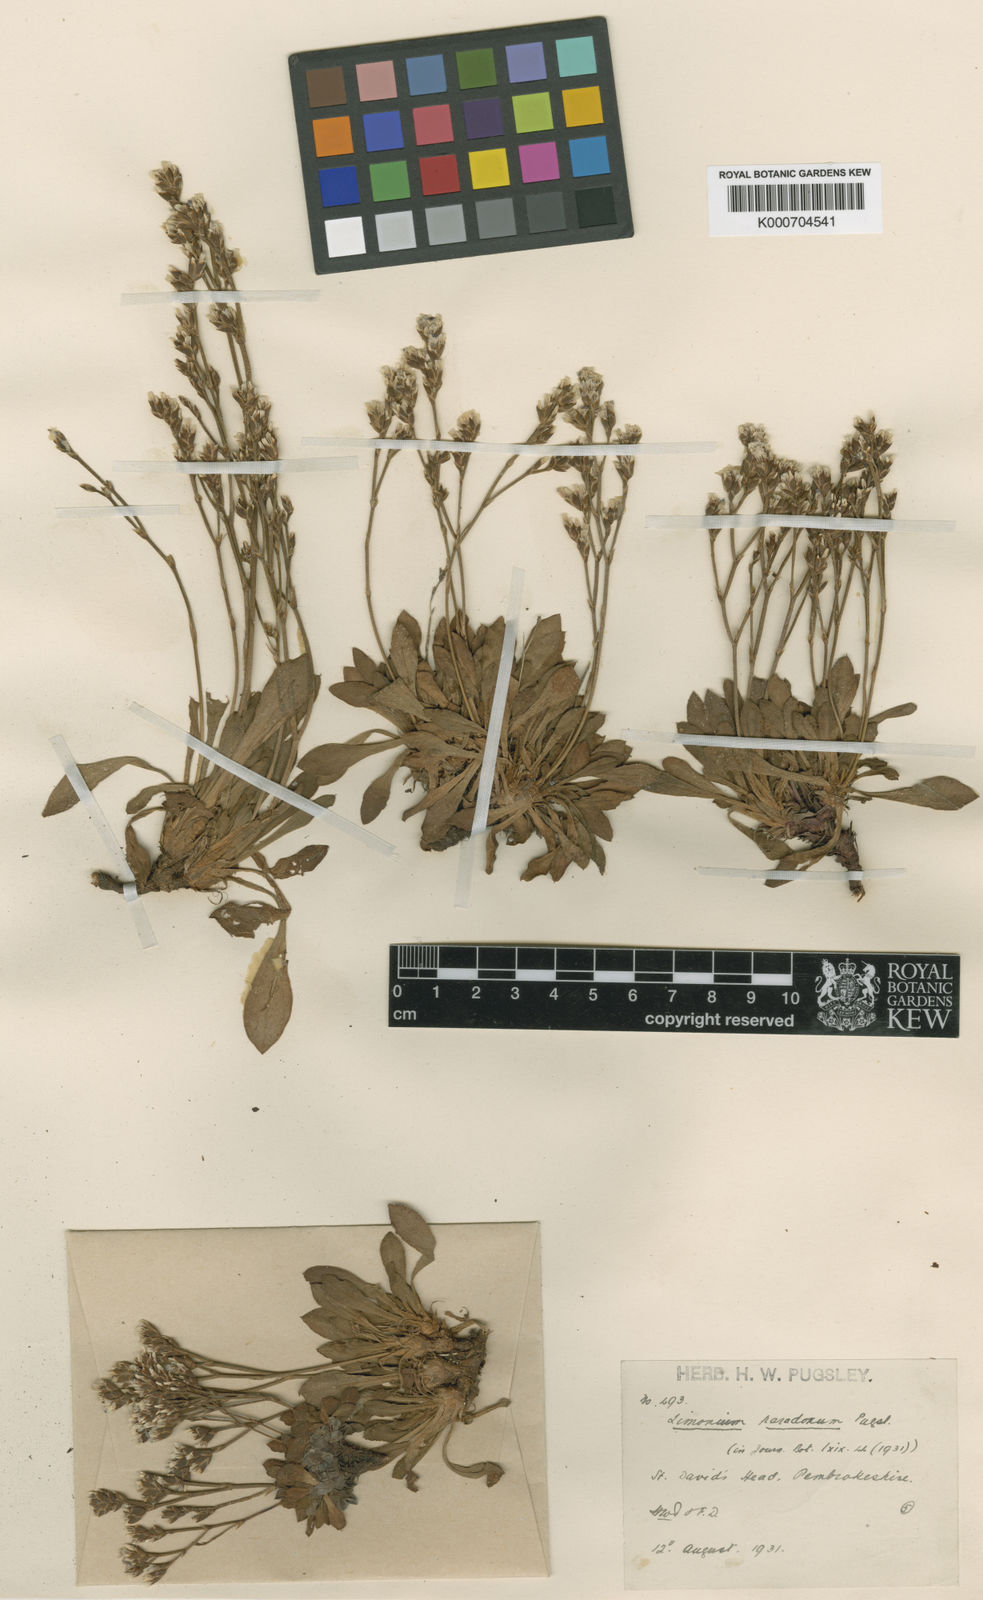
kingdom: Plantae
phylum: Tracheophyta
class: Magnoliopsida
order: Caryophyllales
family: Plumbaginaceae
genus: Limonium
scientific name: Limonium paradoxum
